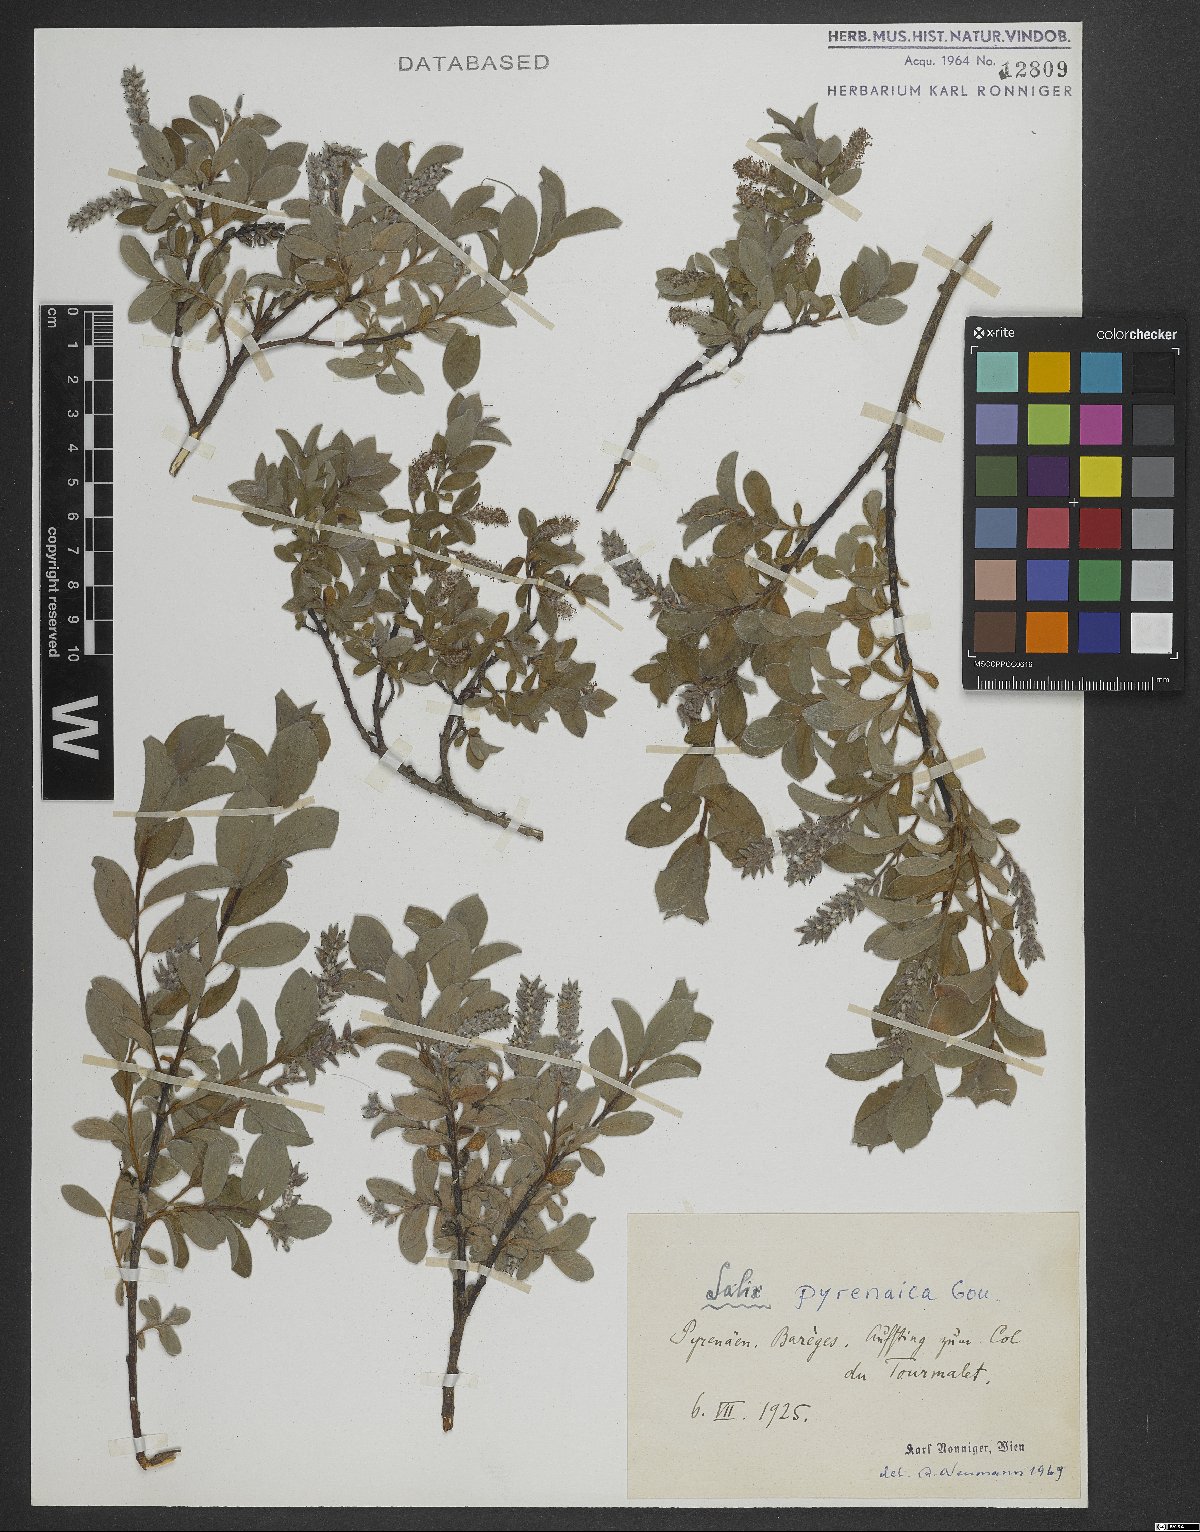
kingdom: Plantae
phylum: Tracheophyta
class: Magnoliopsida
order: Malpighiales
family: Salicaceae
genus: Salix
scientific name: Salix pyrenaica
